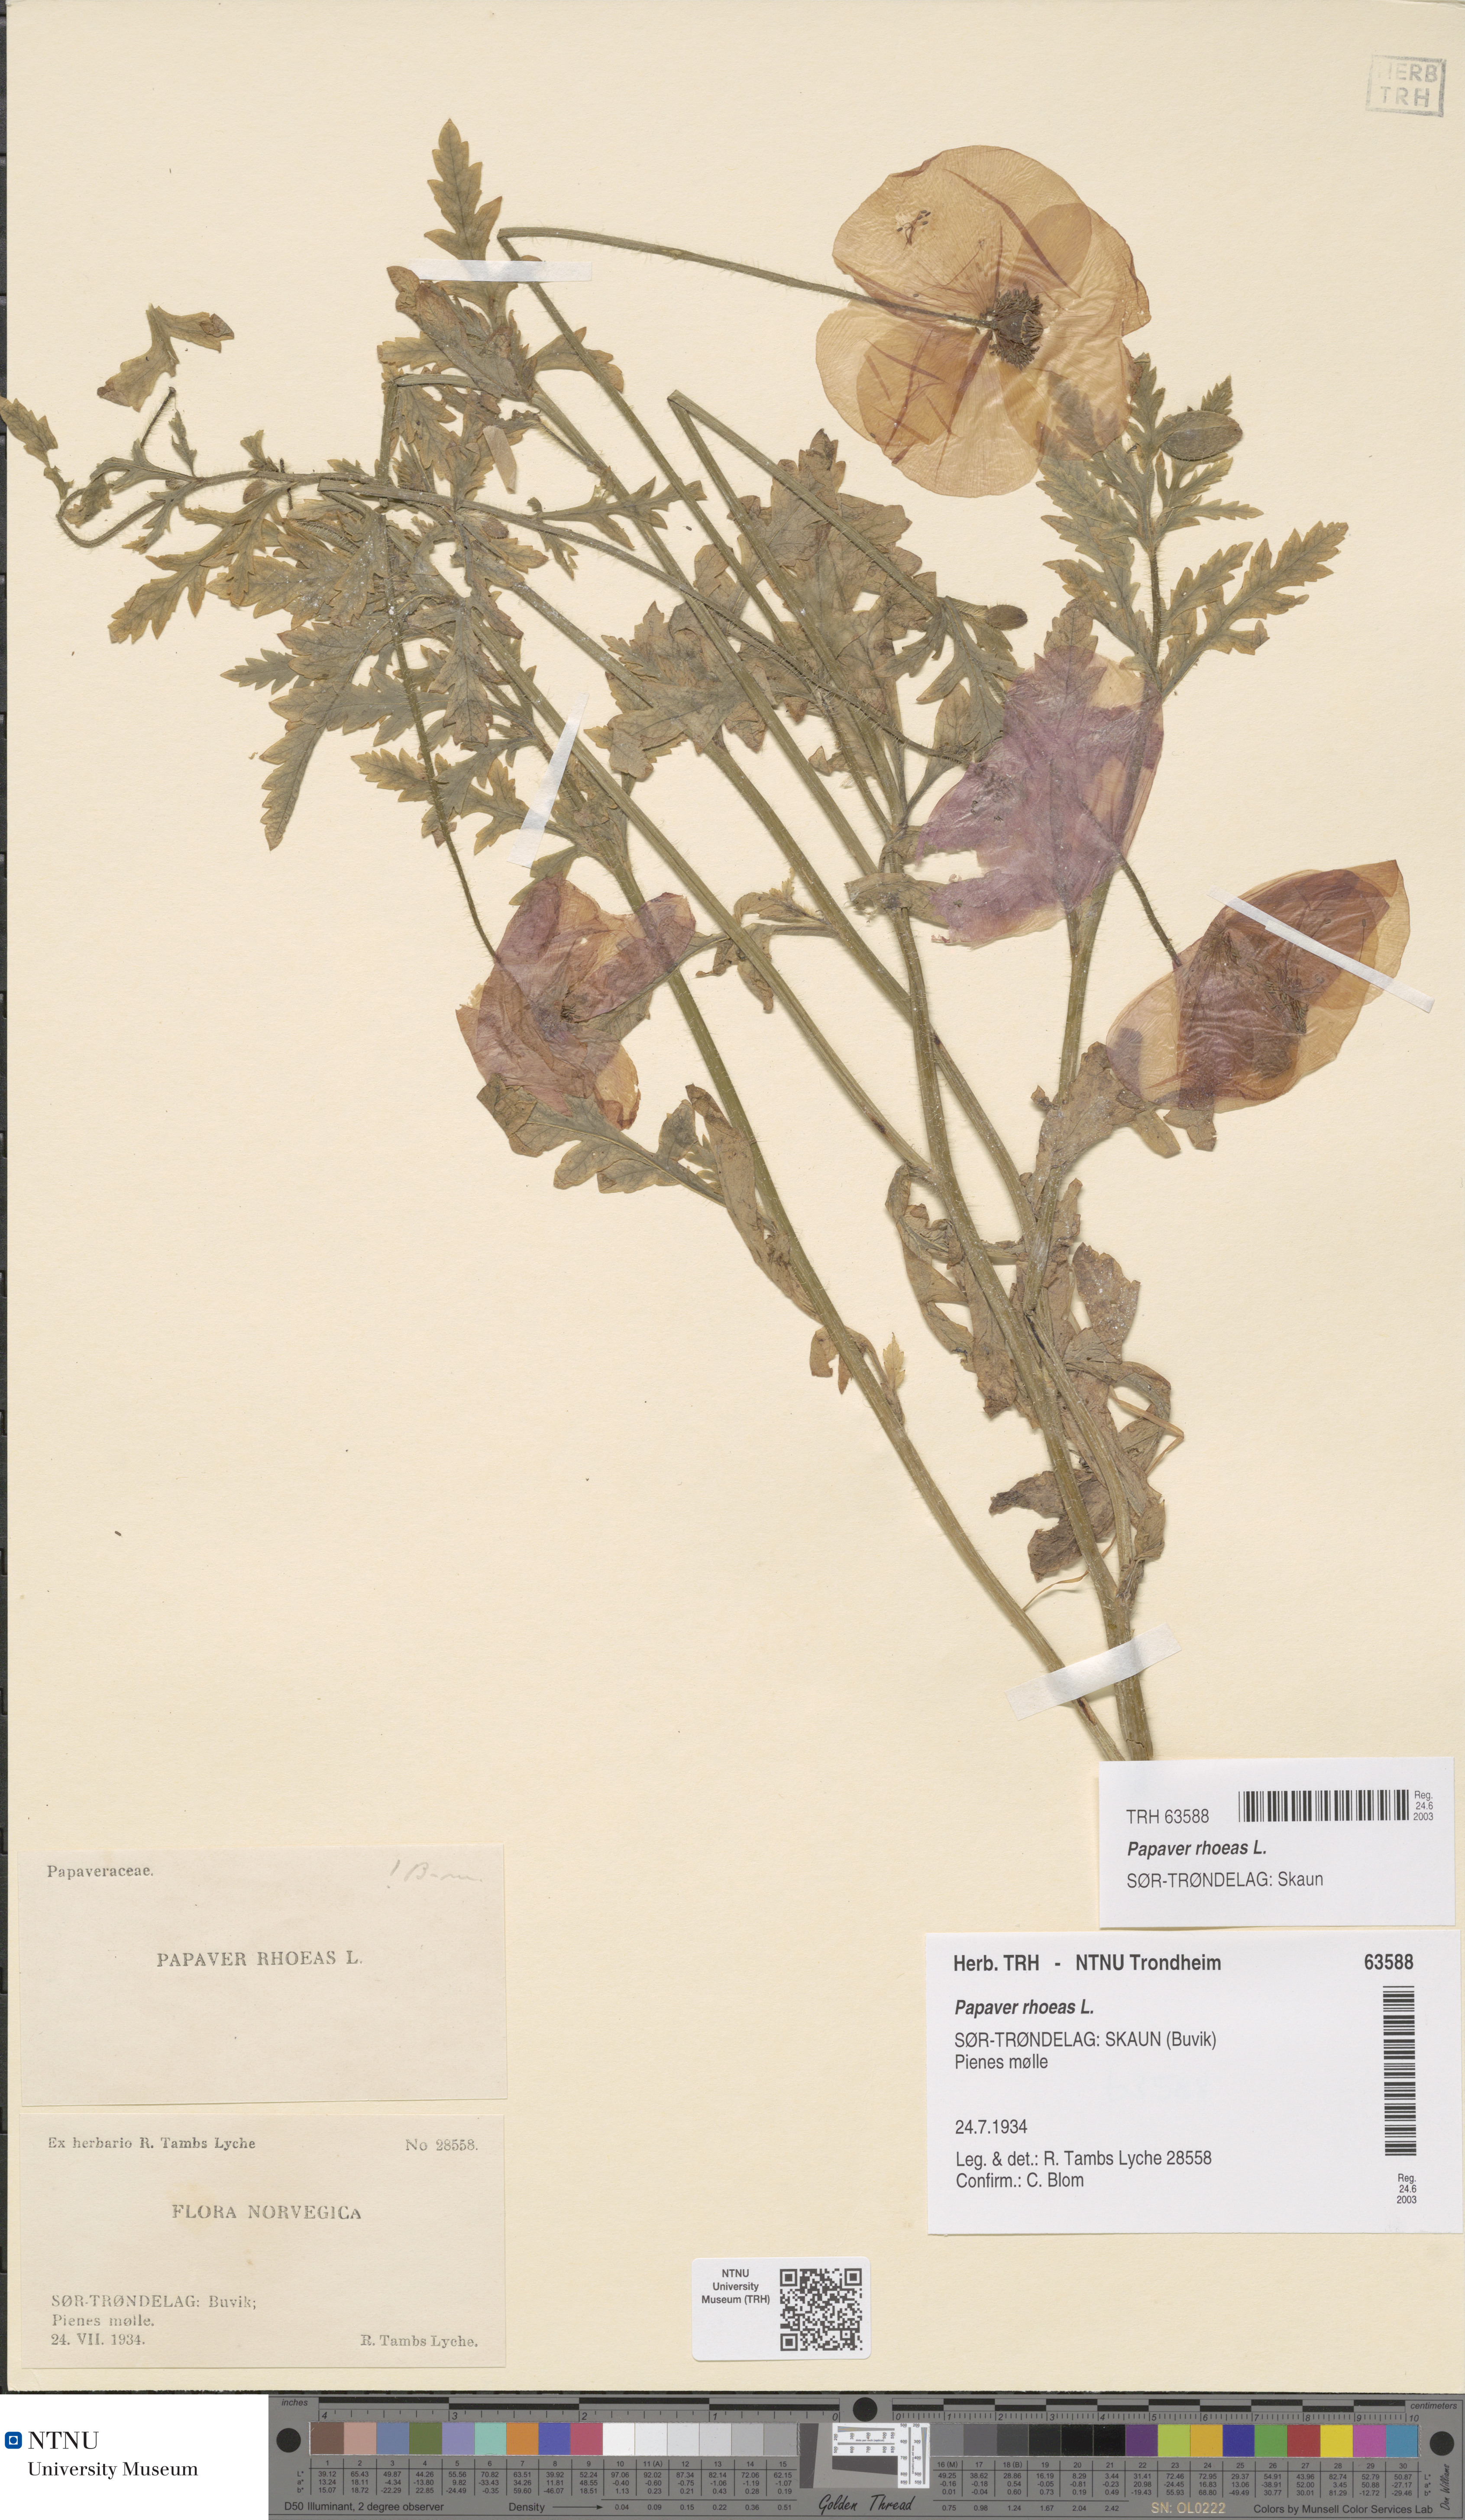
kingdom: Plantae
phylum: Tracheophyta
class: Magnoliopsida
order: Ranunculales
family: Papaveraceae
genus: Papaver
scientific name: Papaver rhoeas
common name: Corn poppy
